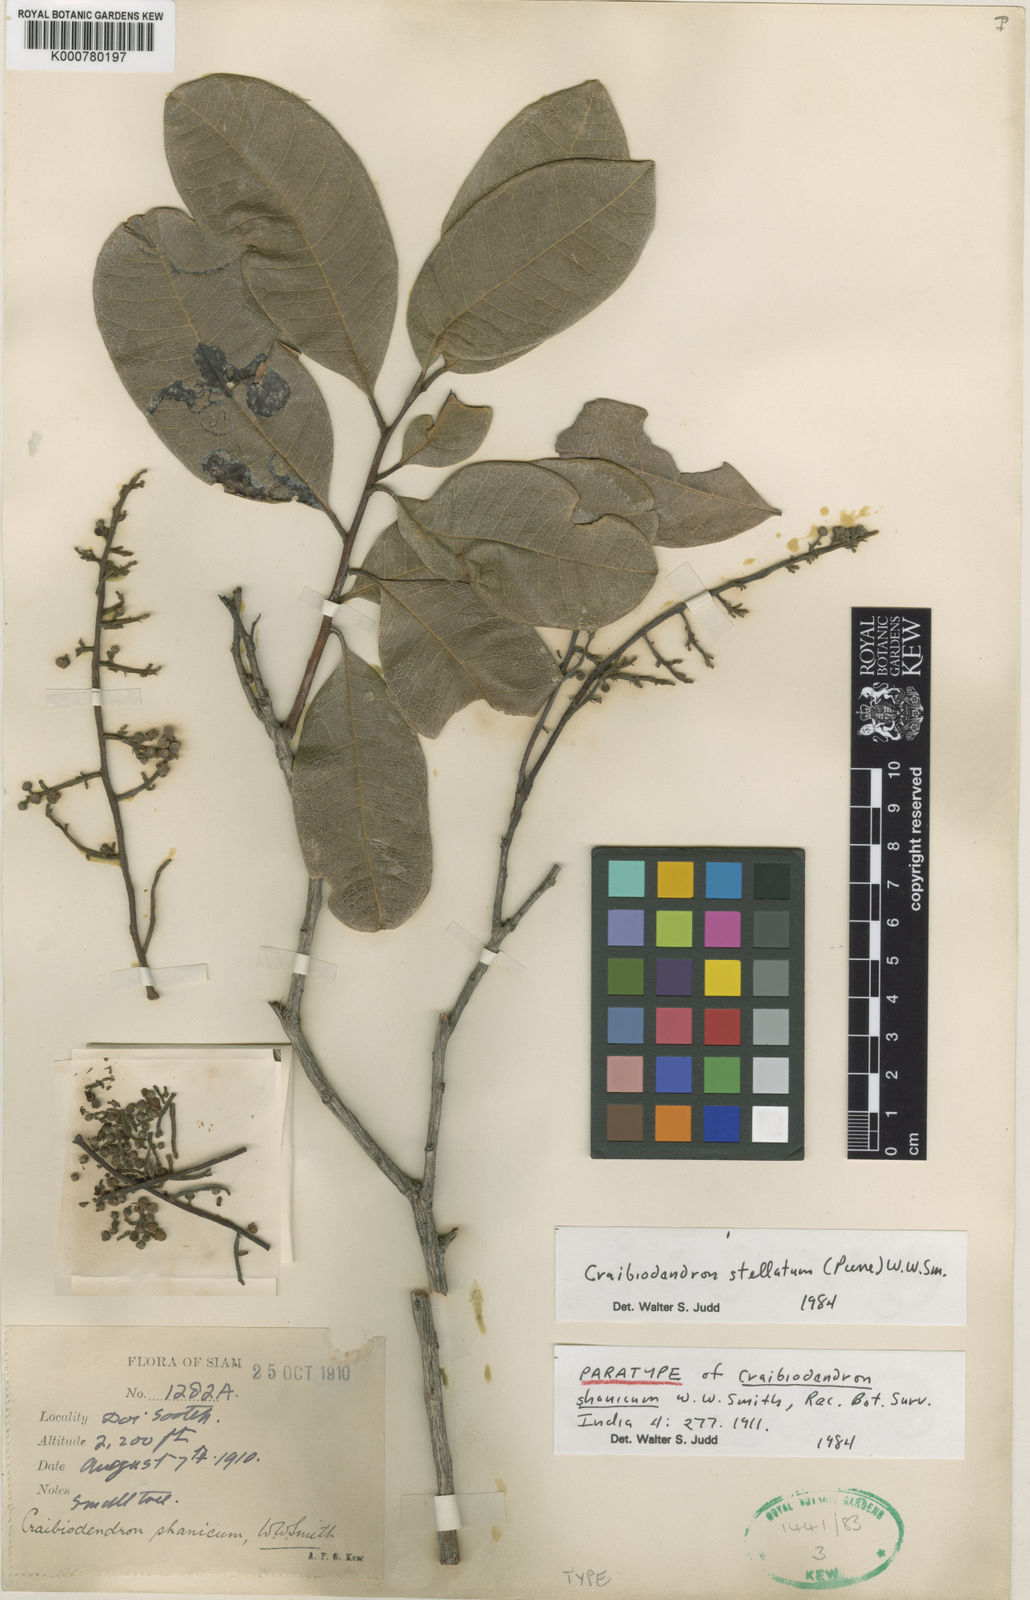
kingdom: Plantae
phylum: Tracheophyta
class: Magnoliopsida
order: Ericales
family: Ericaceae
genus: Craibiodendron
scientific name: Craibiodendron stellatum
